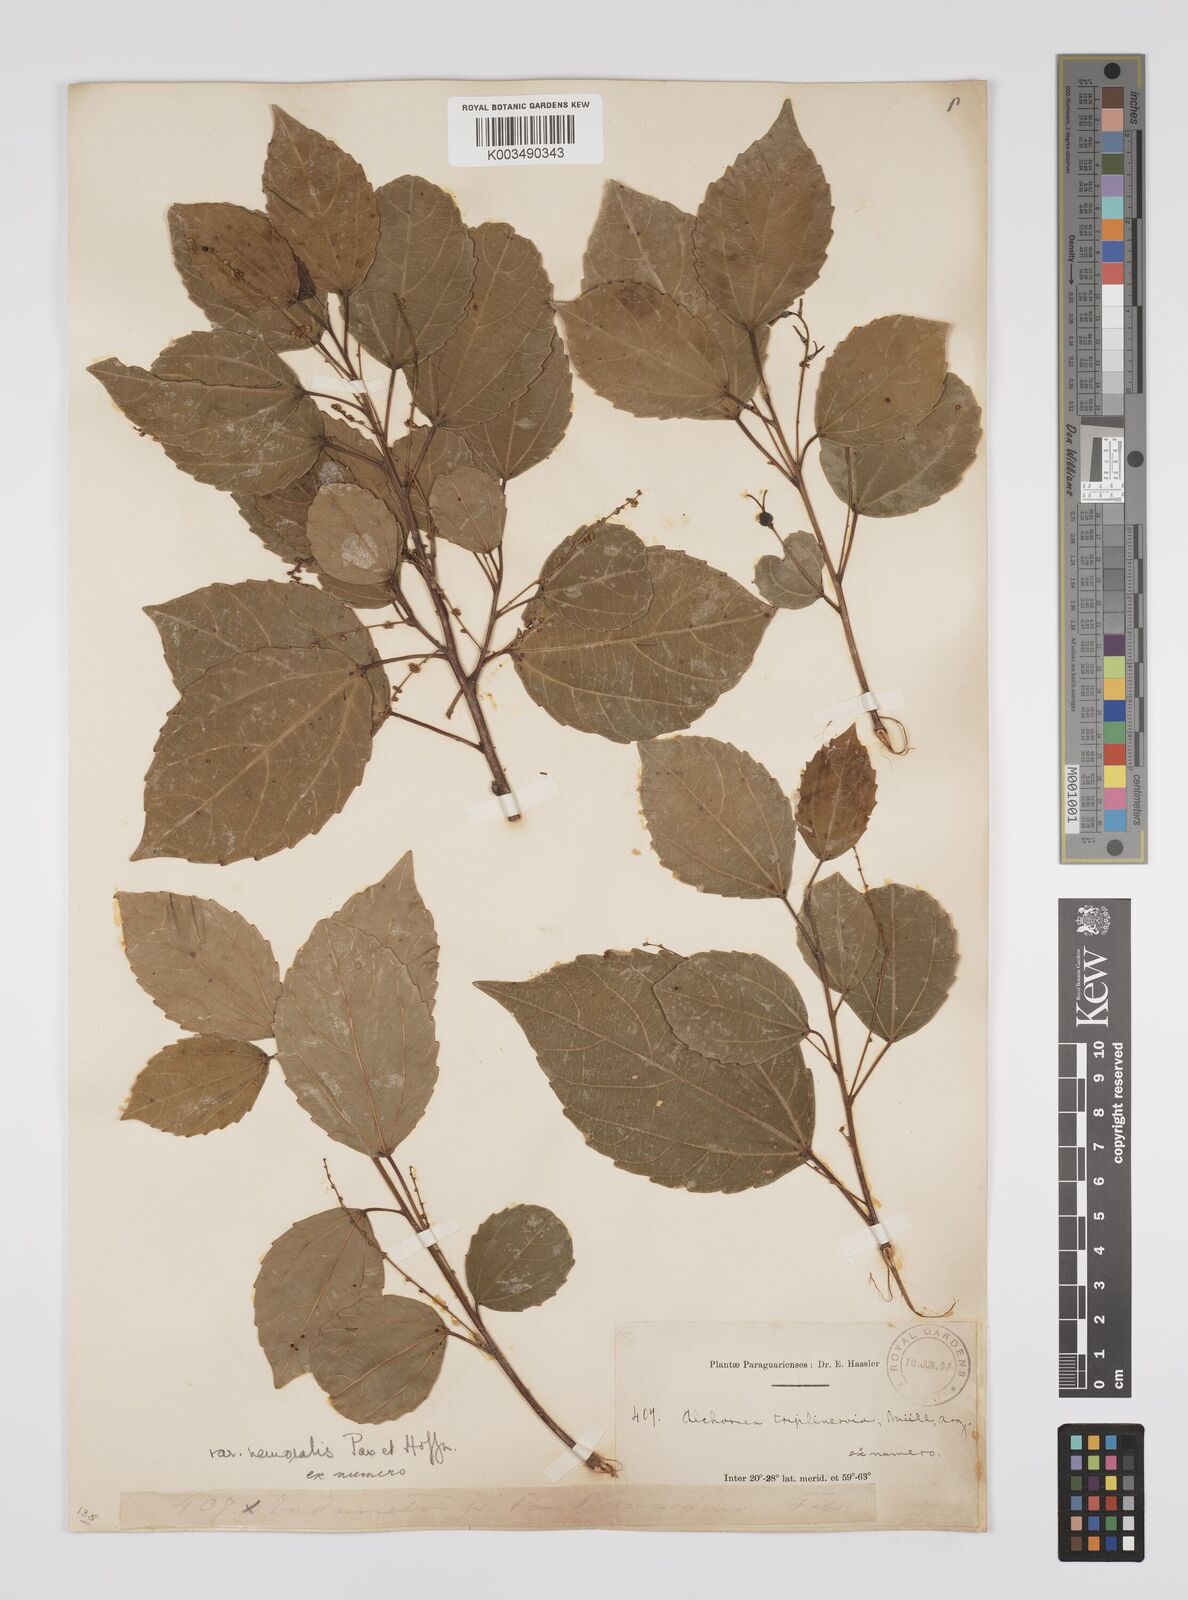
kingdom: Plantae
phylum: Tracheophyta
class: Magnoliopsida
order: Malpighiales
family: Euphorbiaceae
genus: Alchornea
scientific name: Alchornea triplinervia
